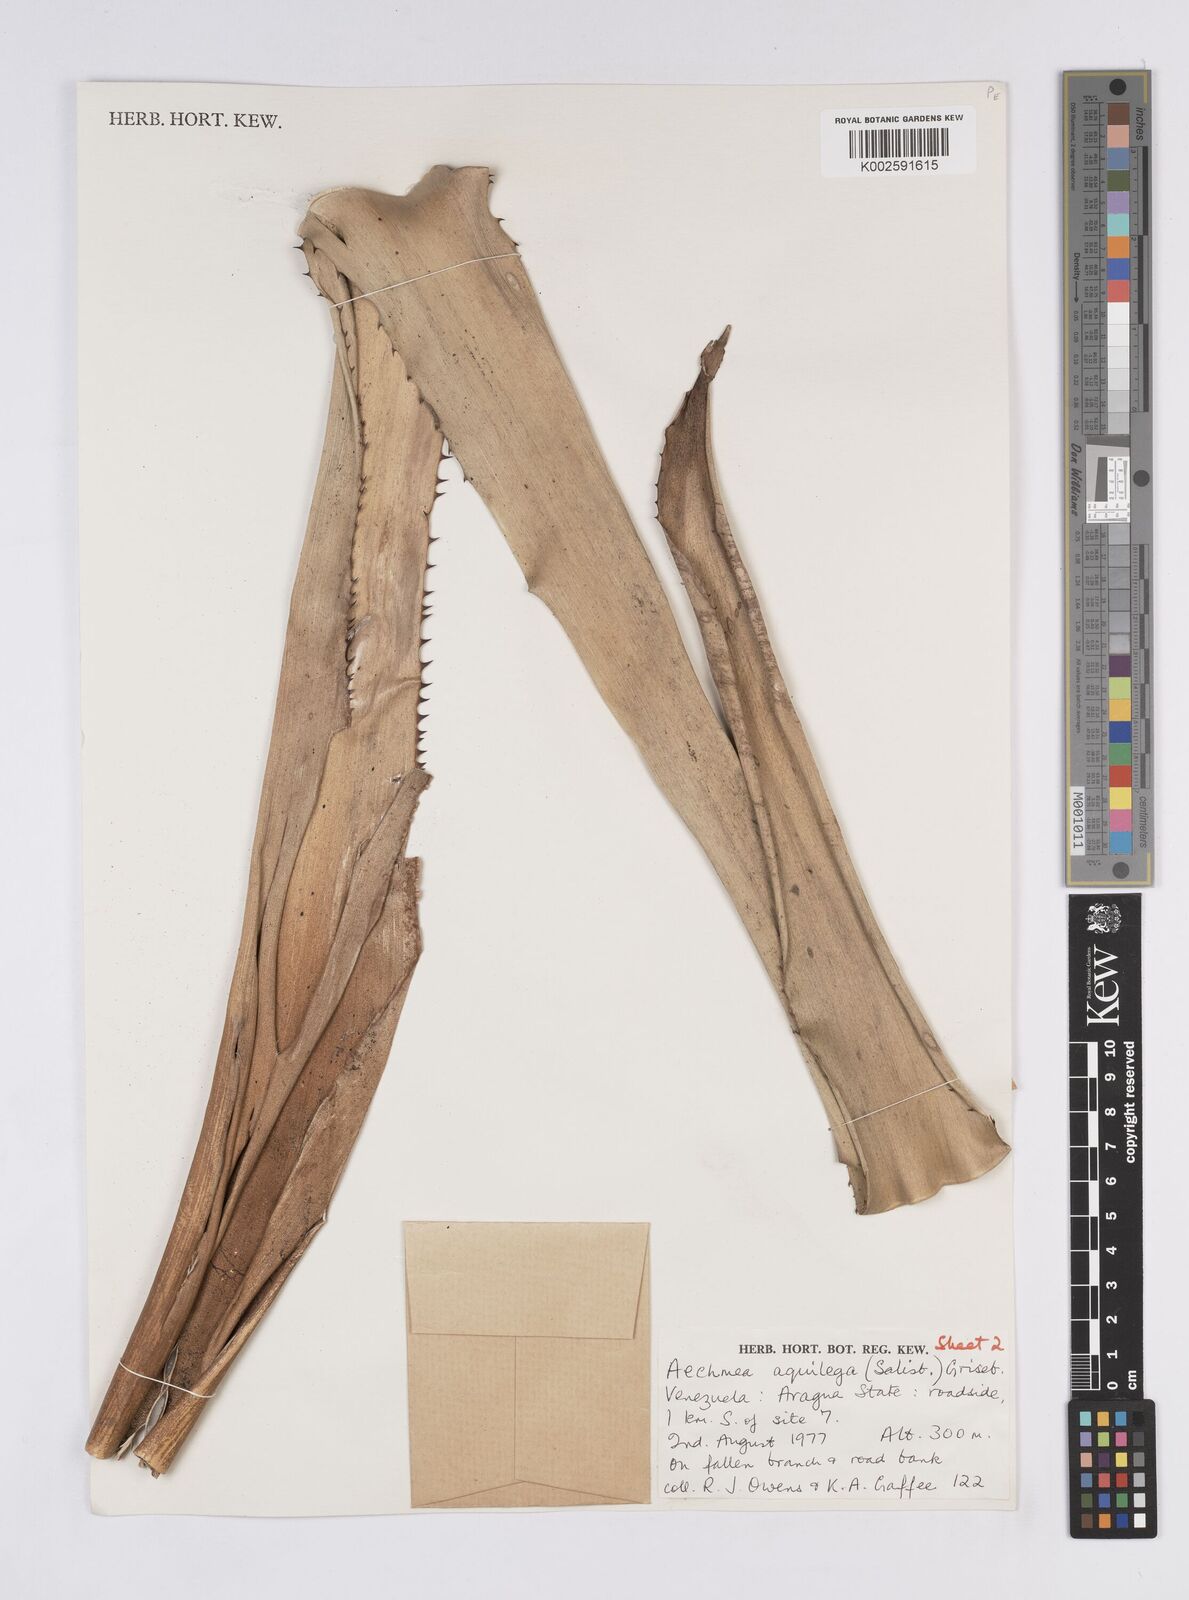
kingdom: Plantae
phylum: Tracheophyta
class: Liliopsida
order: Poales
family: Bromeliaceae
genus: Aechmea
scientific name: Aechmea aquilega
